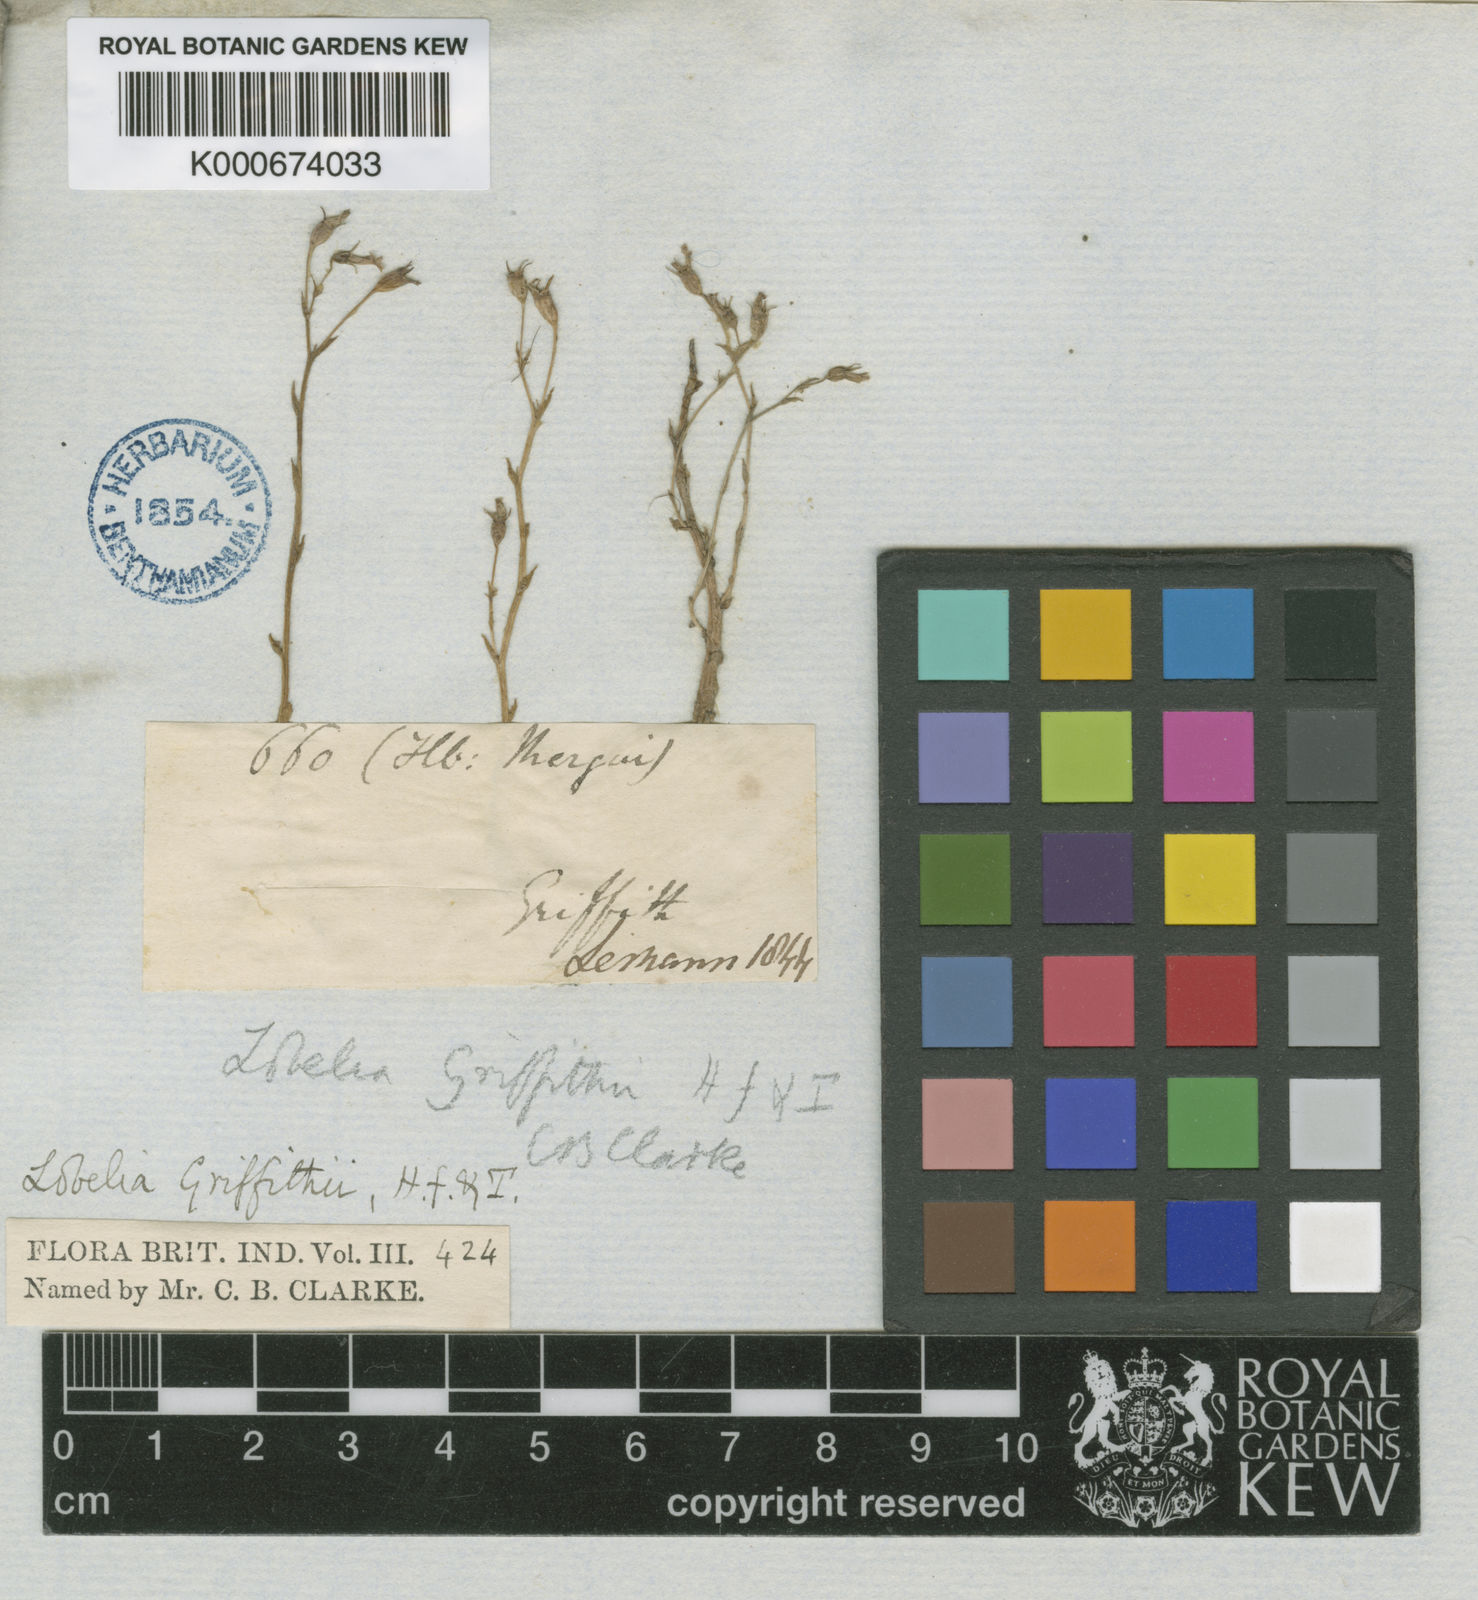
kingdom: Plantae
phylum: Tracheophyta
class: Magnoliopsida
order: Asterales
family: Campanulaceae
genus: Lobelia
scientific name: Lobelia alsinoides
